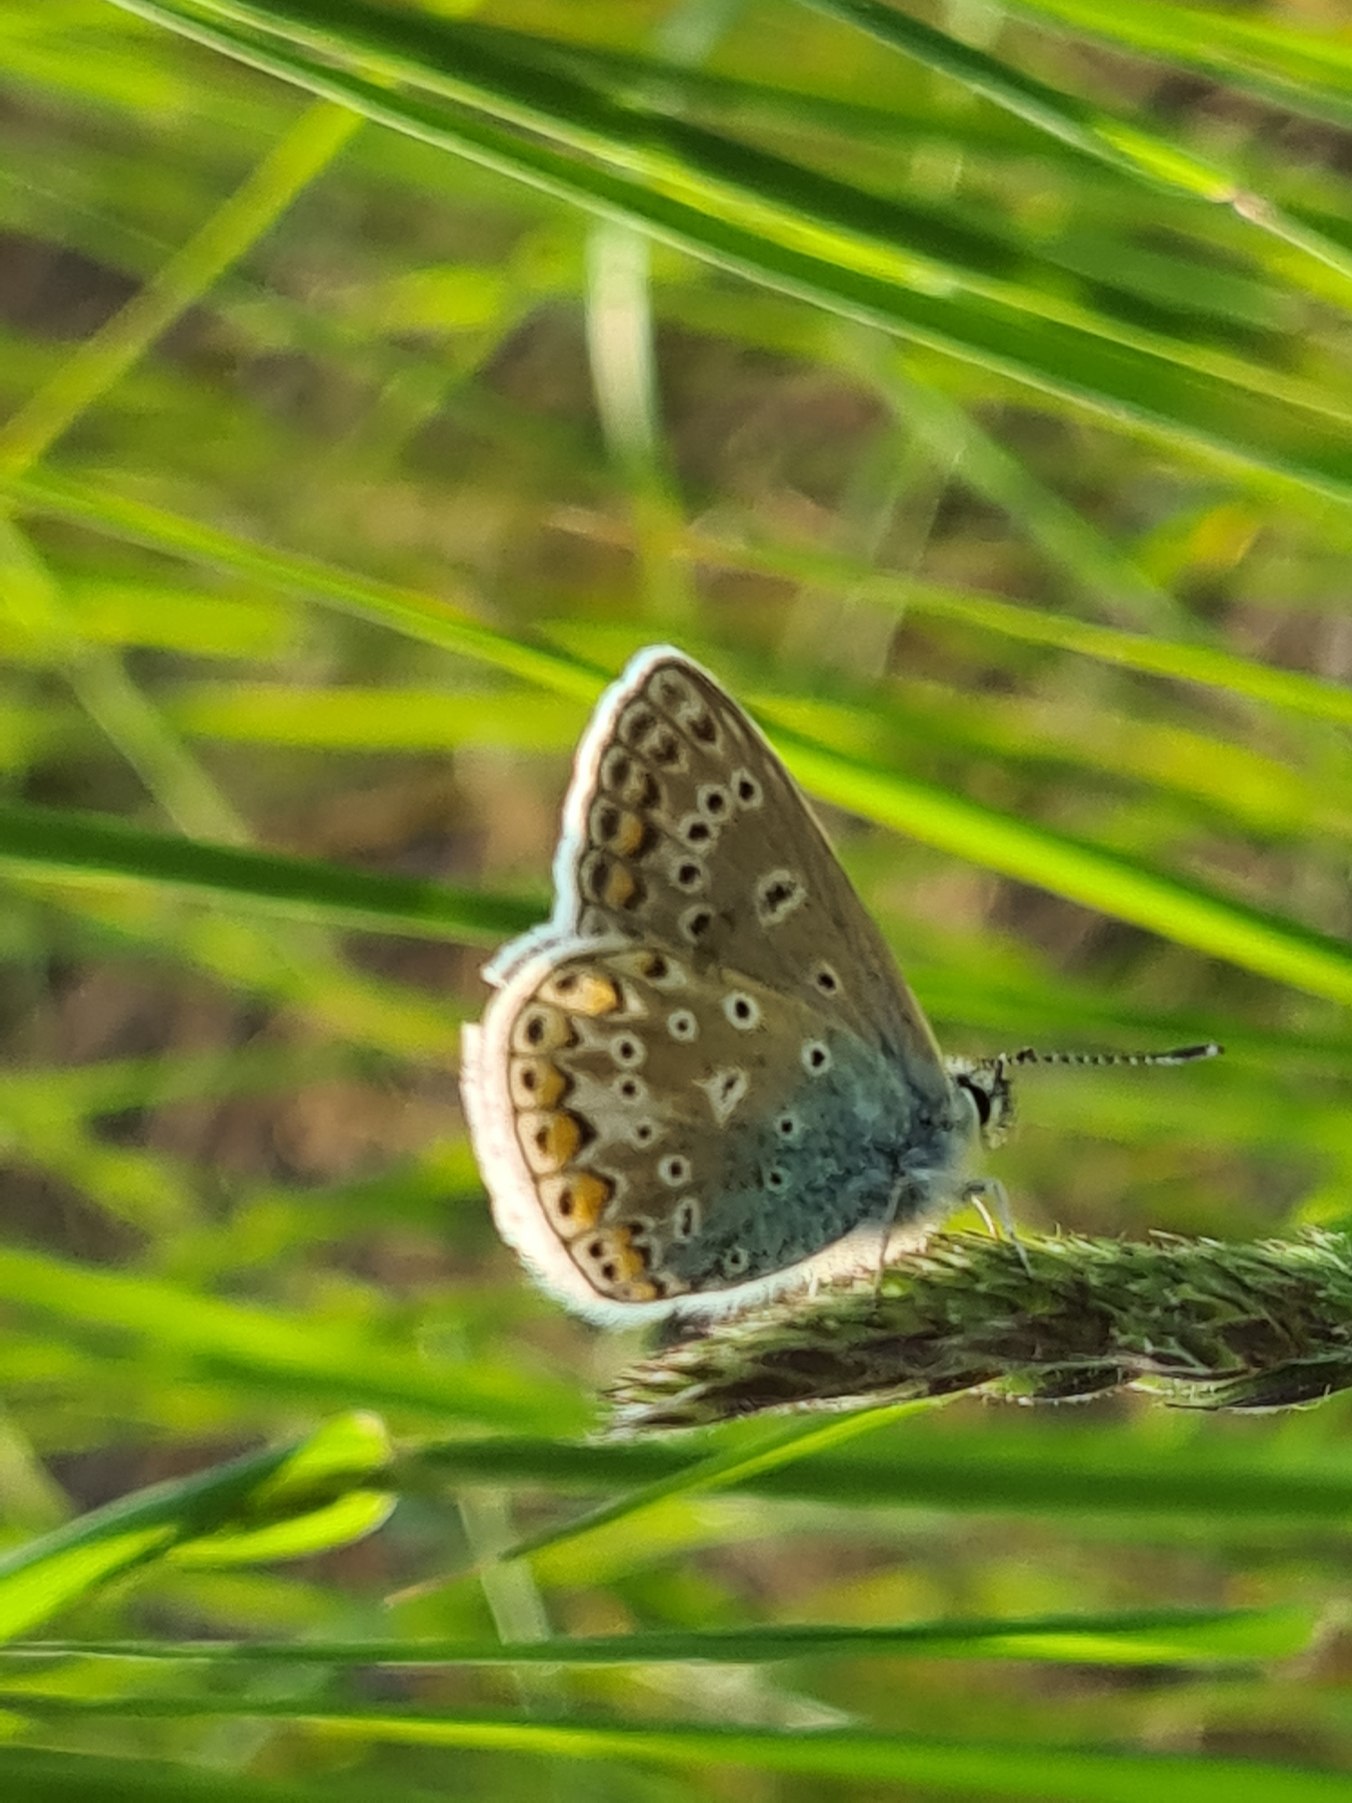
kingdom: Animalia
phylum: Arthropoda
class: Insecta
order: Lepidoptera
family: Lycaenidae
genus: Polyommatus
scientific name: Polyommatus icarus
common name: Almindelig blåfugl
